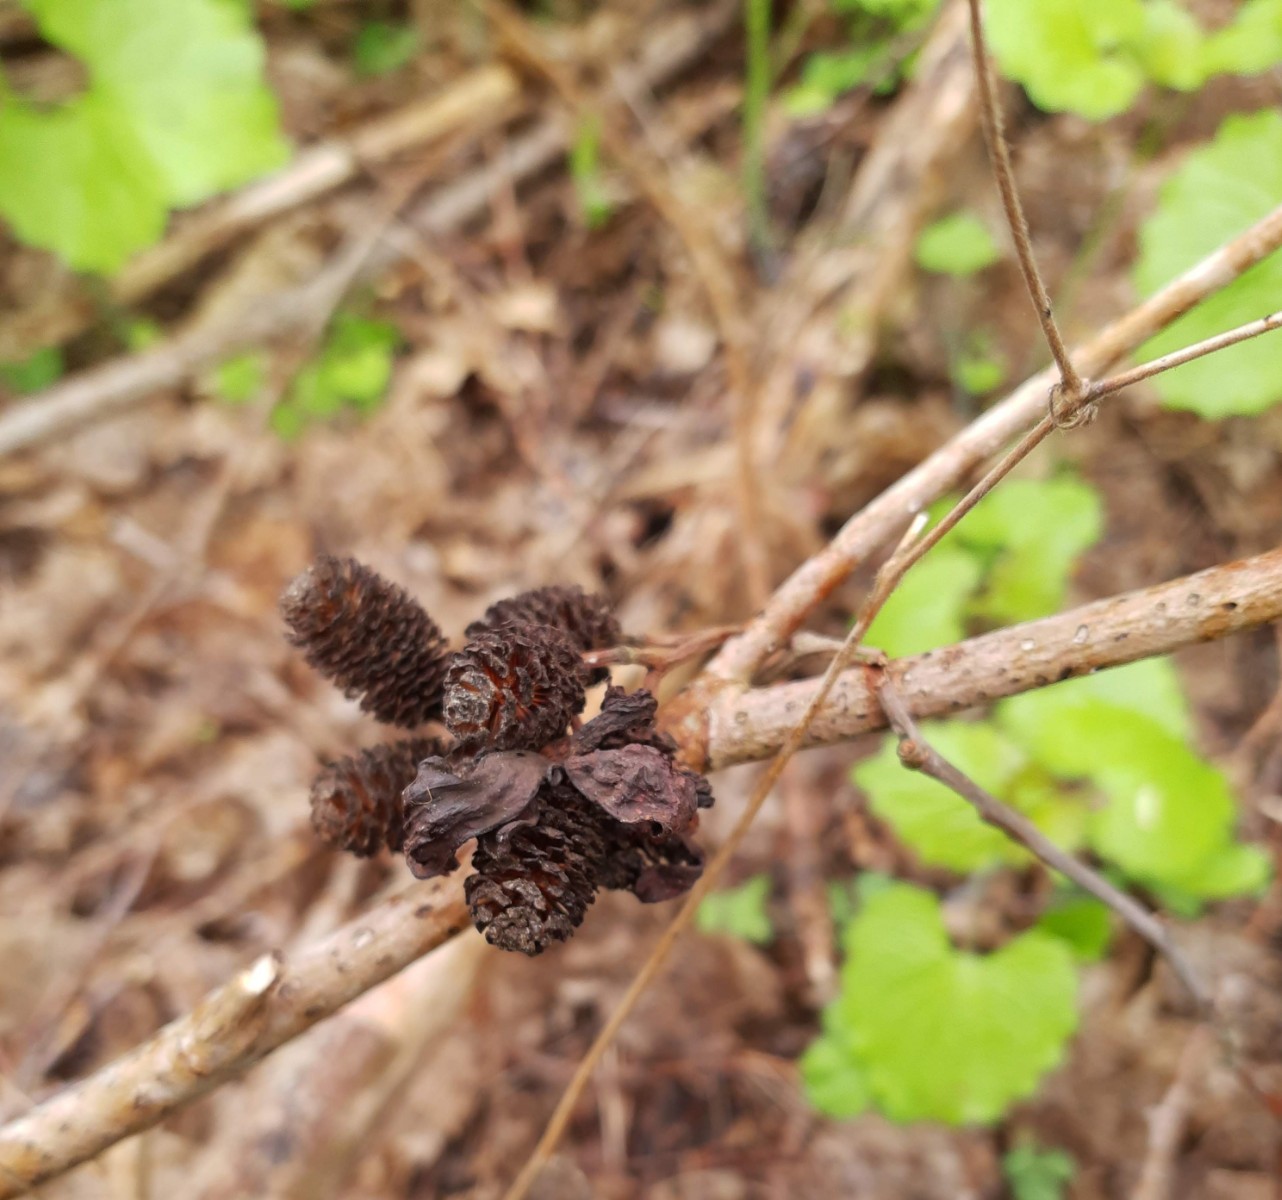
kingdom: Fungi
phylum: Ascomycota
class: Taphrinomycetes
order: Taphrinales
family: Taphrinaceae
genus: Taphrina
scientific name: Taphrina alni
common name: Alder tongue
